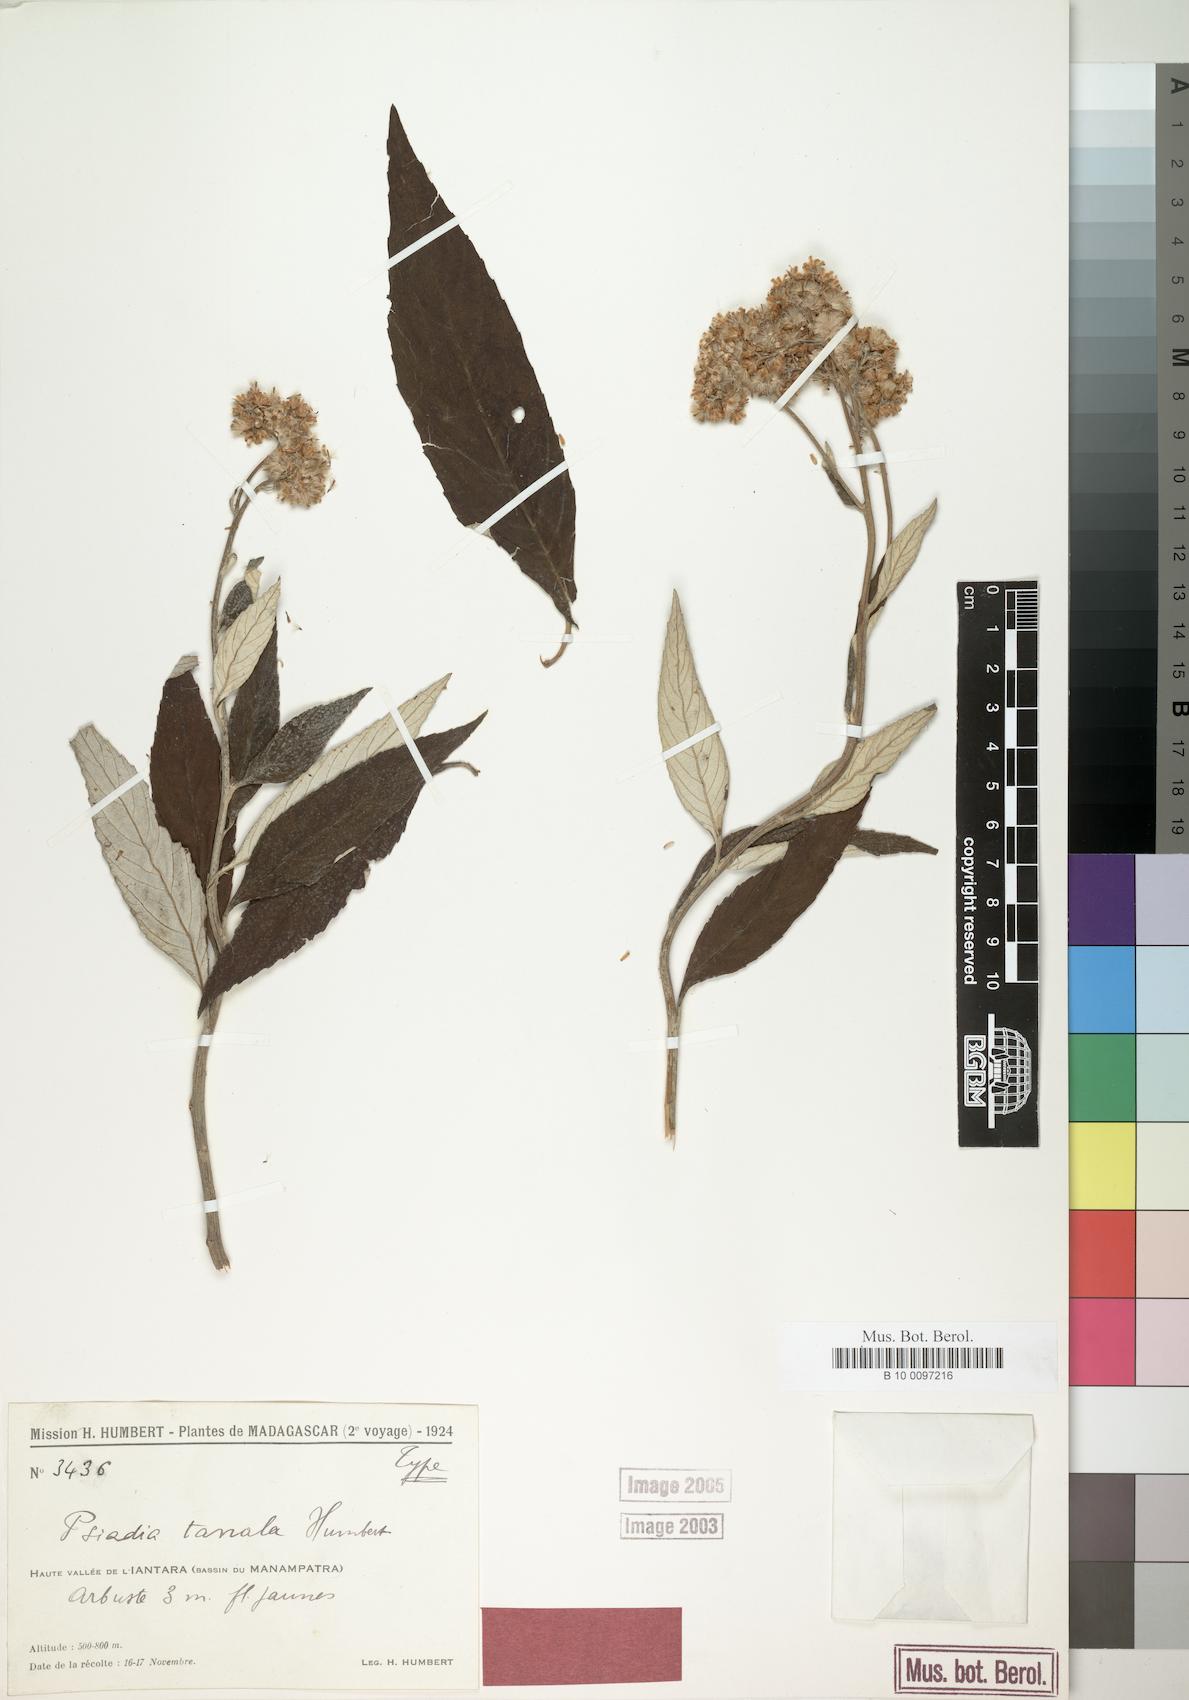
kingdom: Plantae
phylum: Tracheophyta
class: Magnoliopsida
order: Asterales
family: Asteraceae
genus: Psiadia
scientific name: Psiadia tanala
